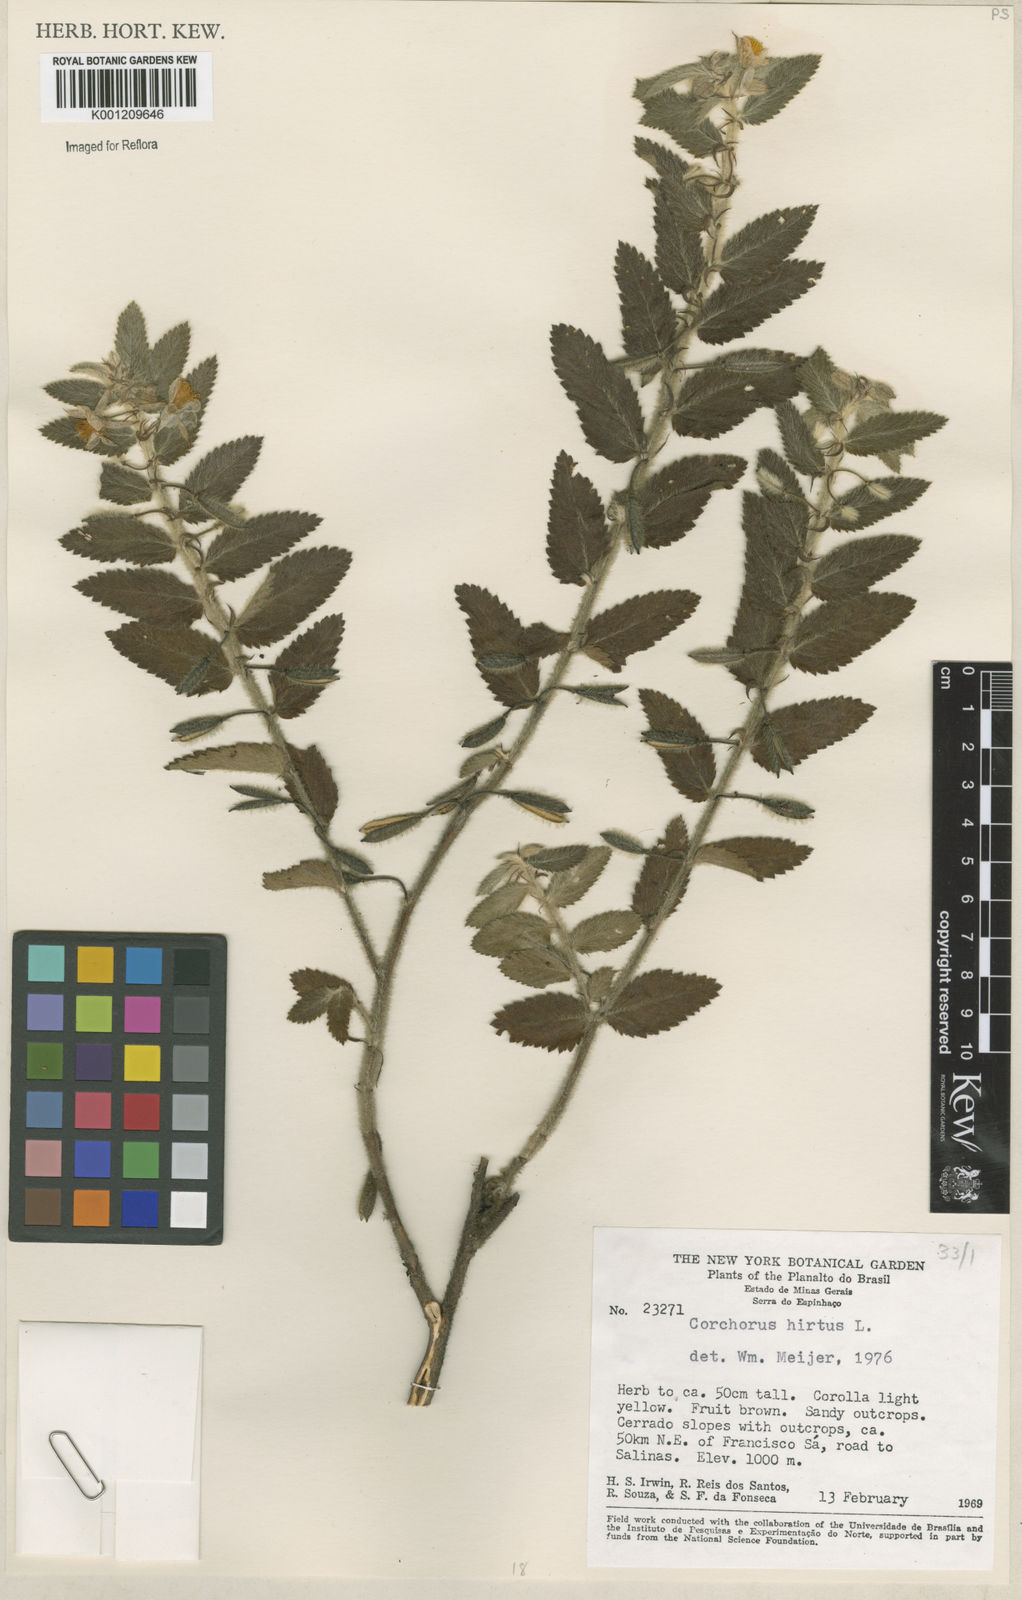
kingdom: Plantae
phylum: Tracheophyta
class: Magnoliopsida
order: Malvales
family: Malvaceae
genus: Corchorus
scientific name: Corchorus hirtus
